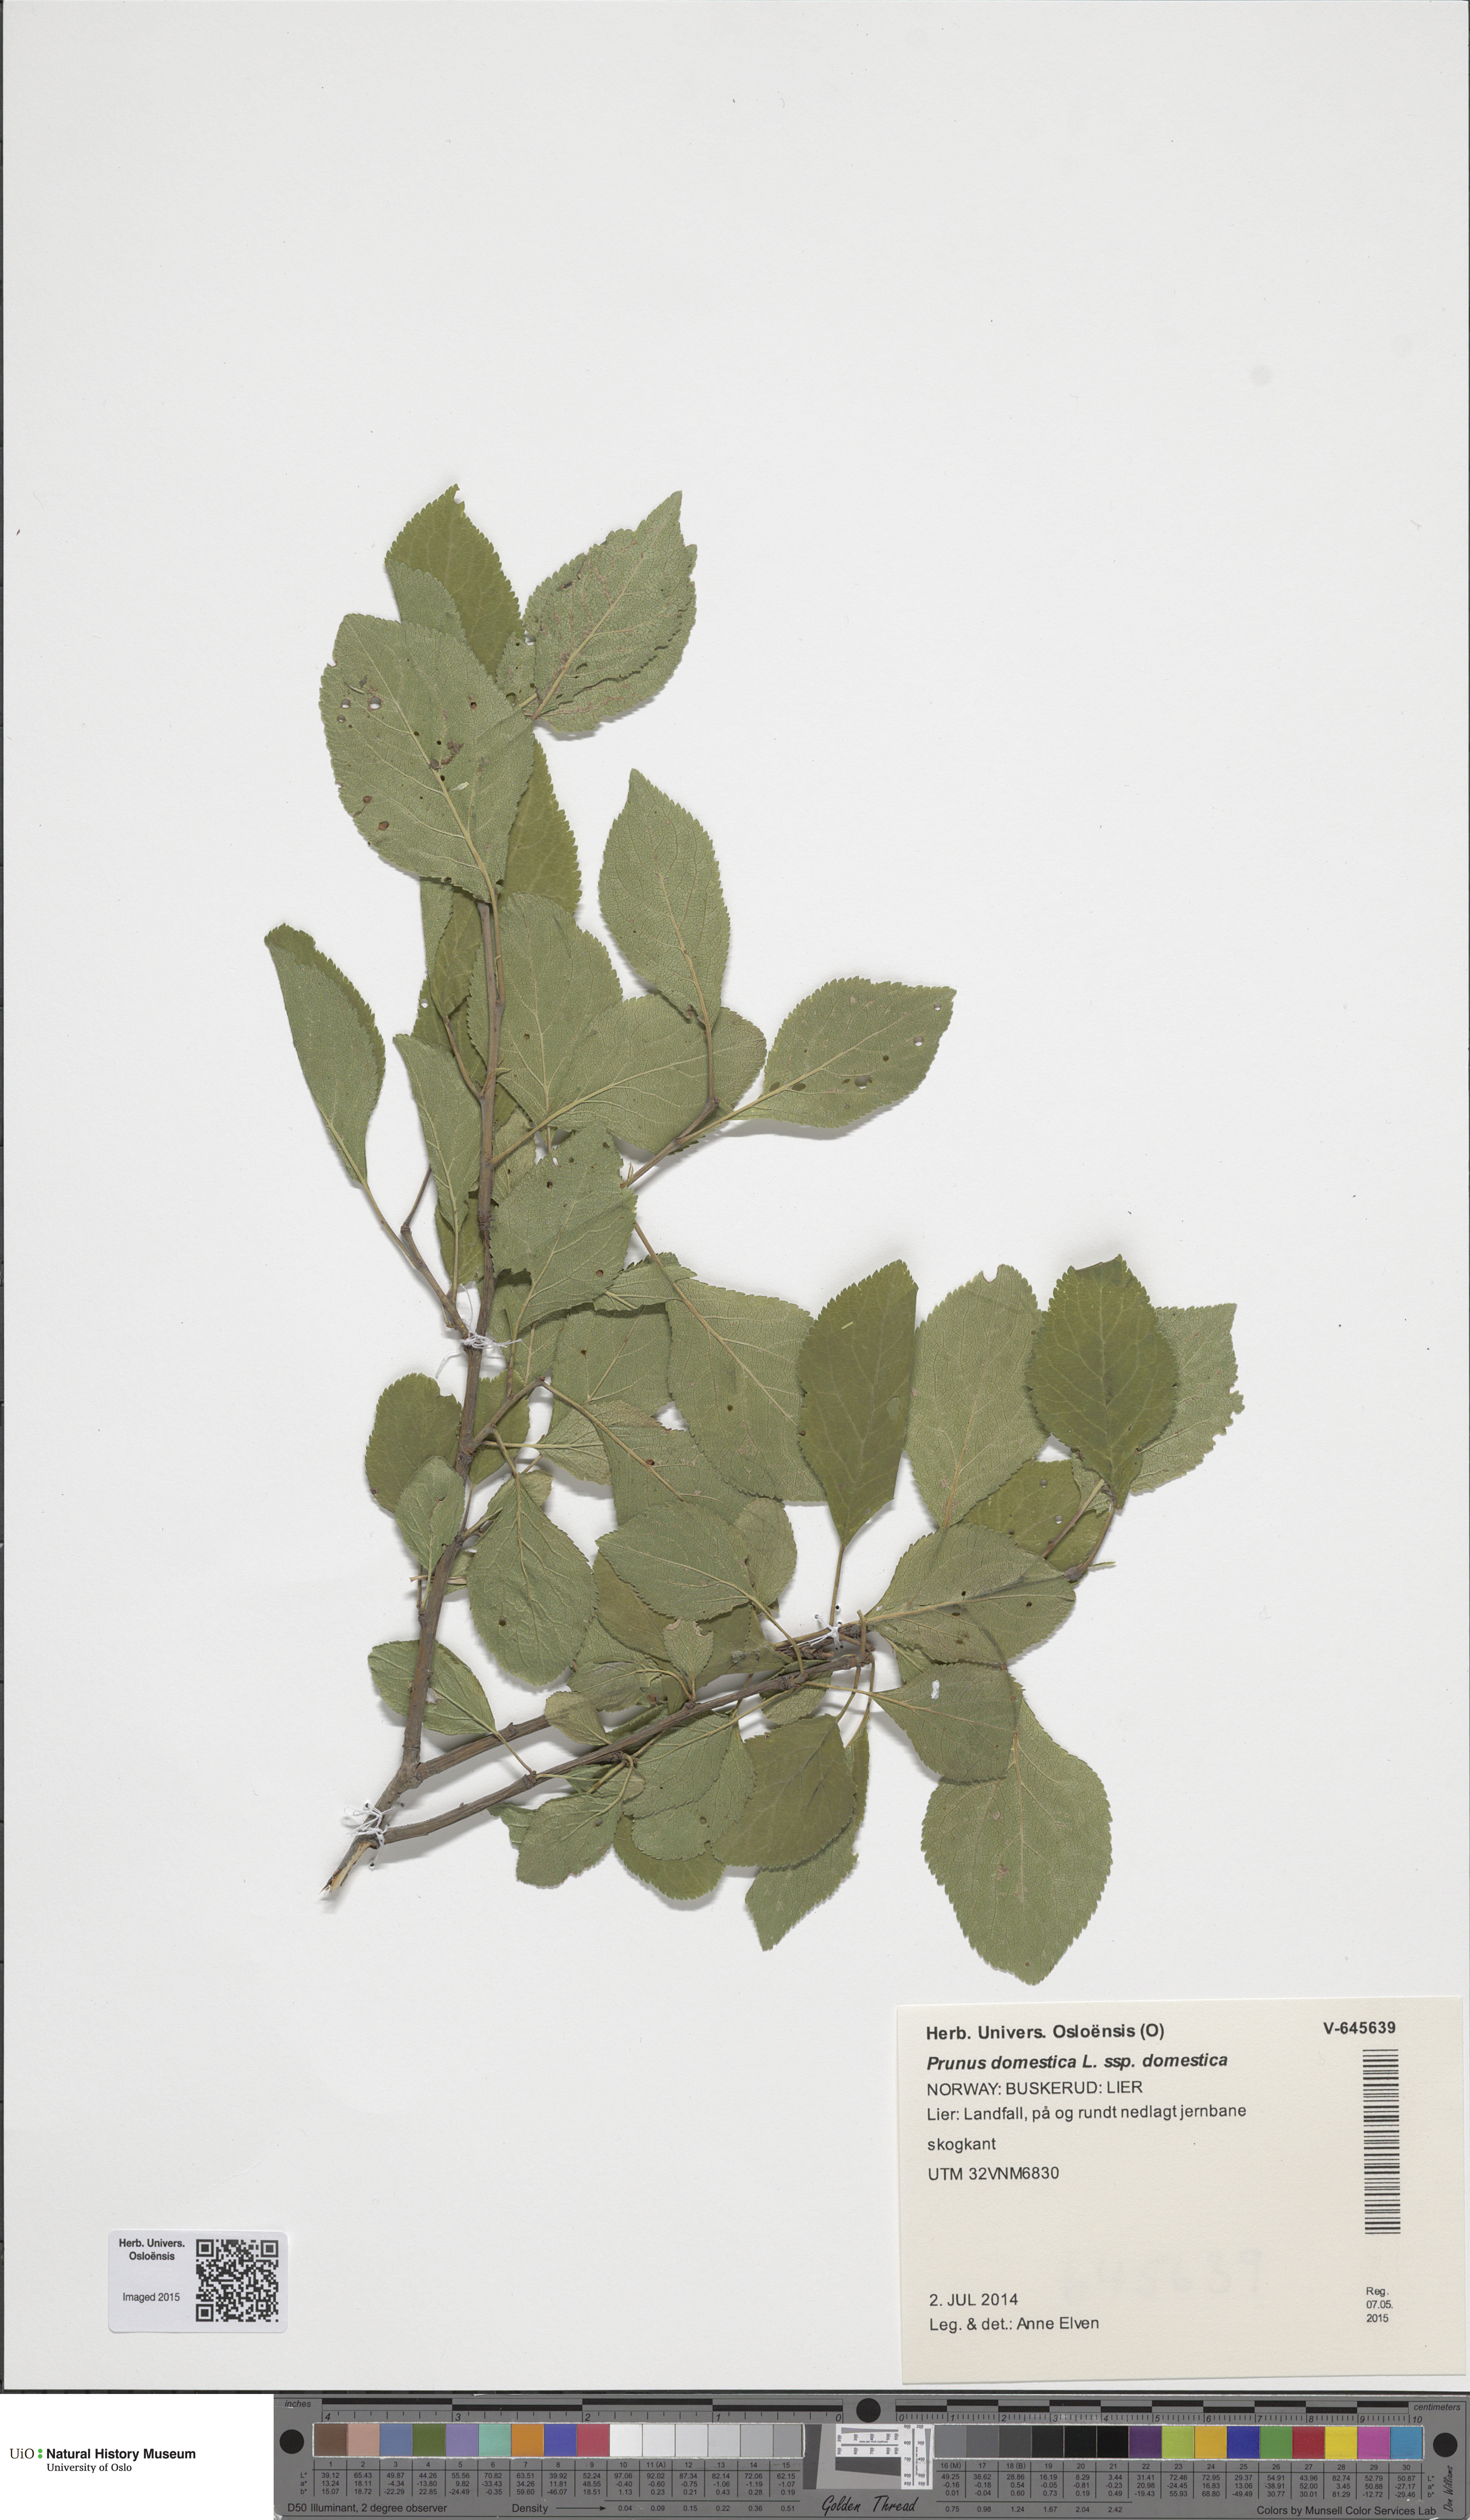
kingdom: Plantae
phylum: Tracheophyta
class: Magnoliopsida
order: Rosales
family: Rosaceae
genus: Prunus
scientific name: Prunus domestica
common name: Wild plum
